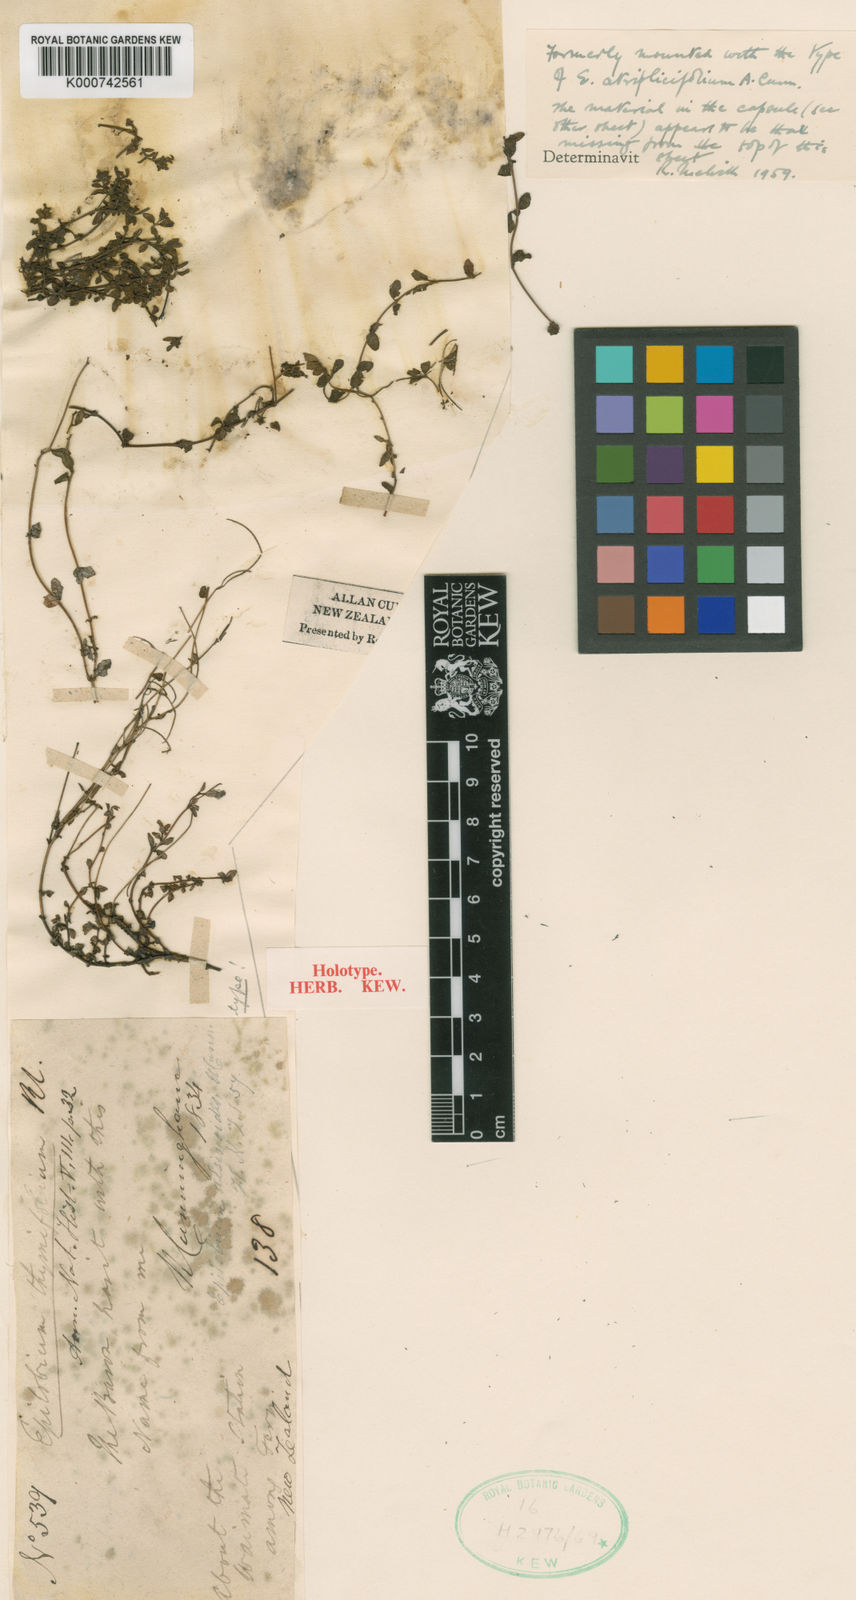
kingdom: Plantae
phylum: Tracheophyta
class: Magnoliopsida
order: Myrtales
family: Onagraceae
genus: Epilobium
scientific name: Epilobium alsinoides
